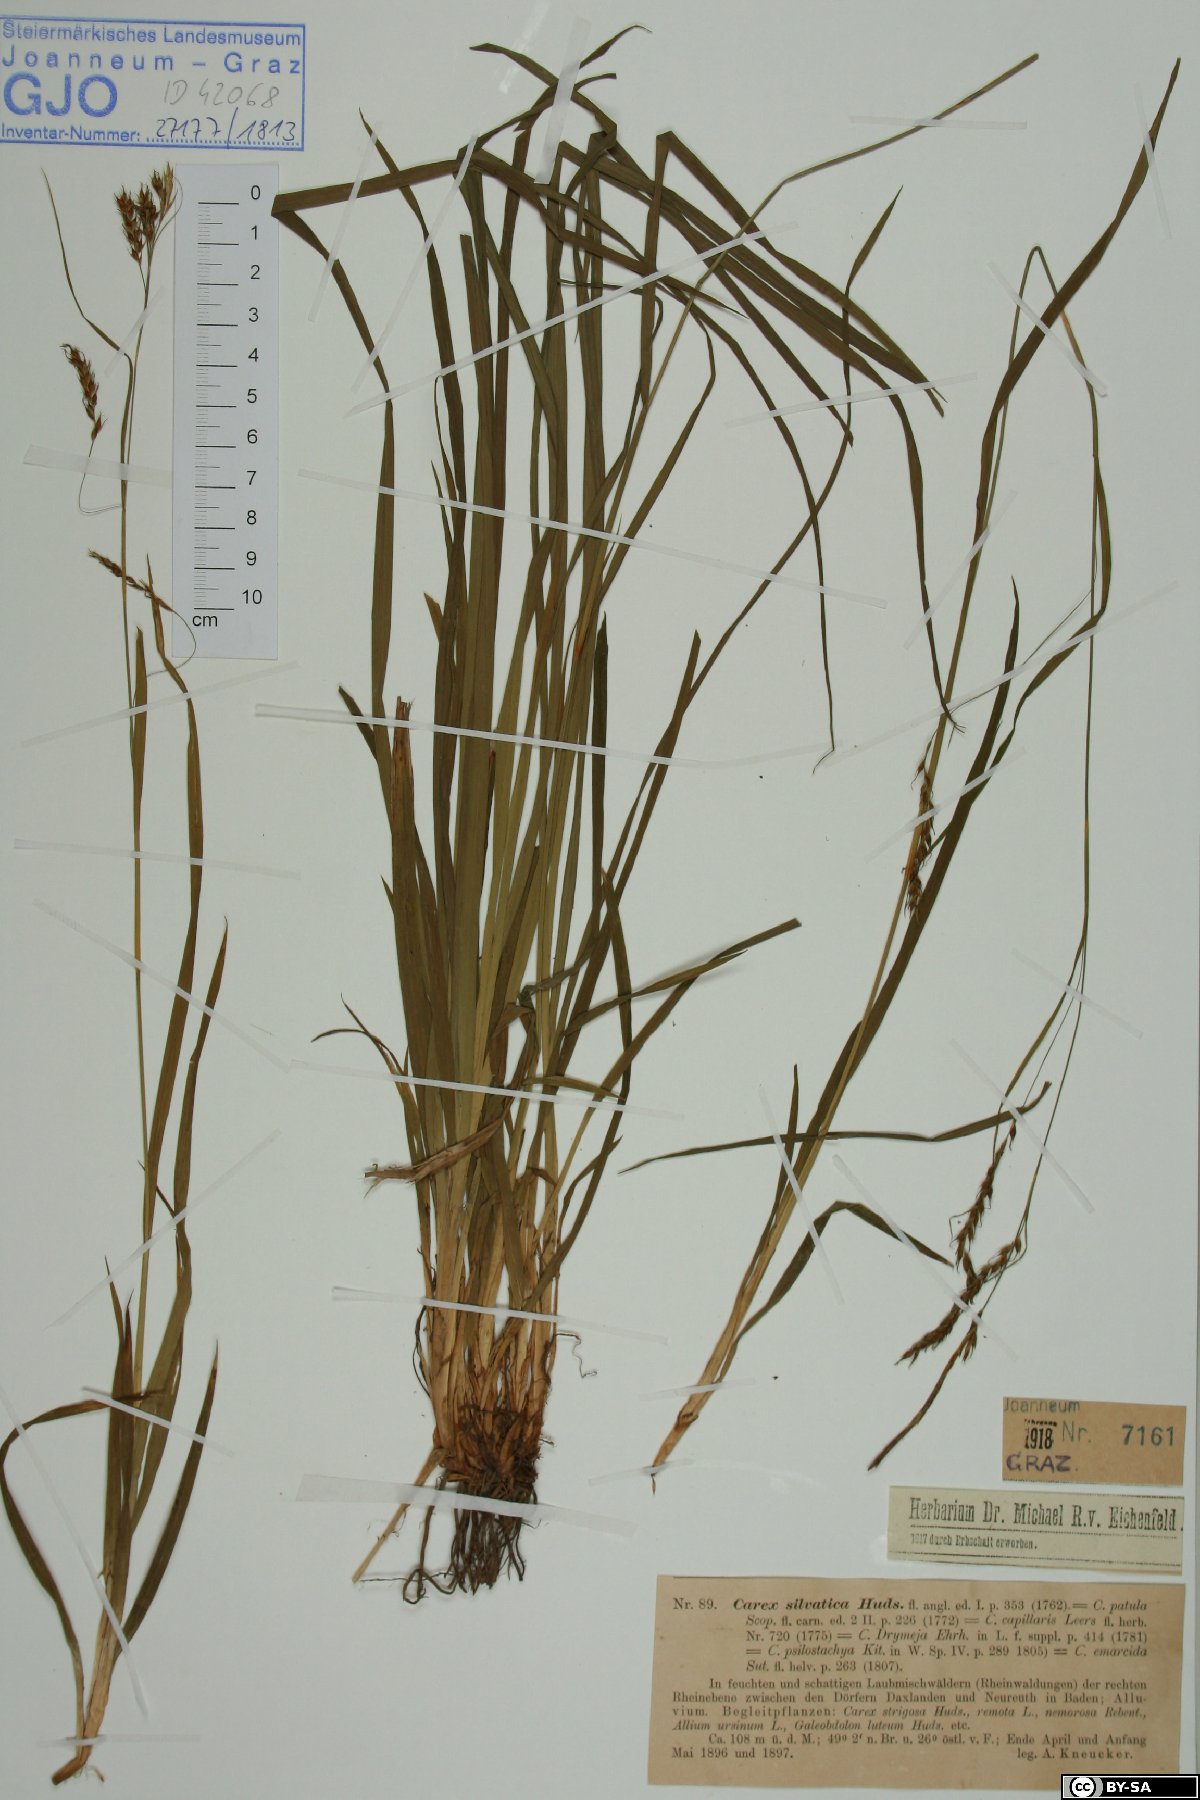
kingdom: Plantae
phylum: Tracheophyta
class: Liliopsida
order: Poales
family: Cyperaceae
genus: Carex
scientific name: Carex sylvatica
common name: Wood-sedge
